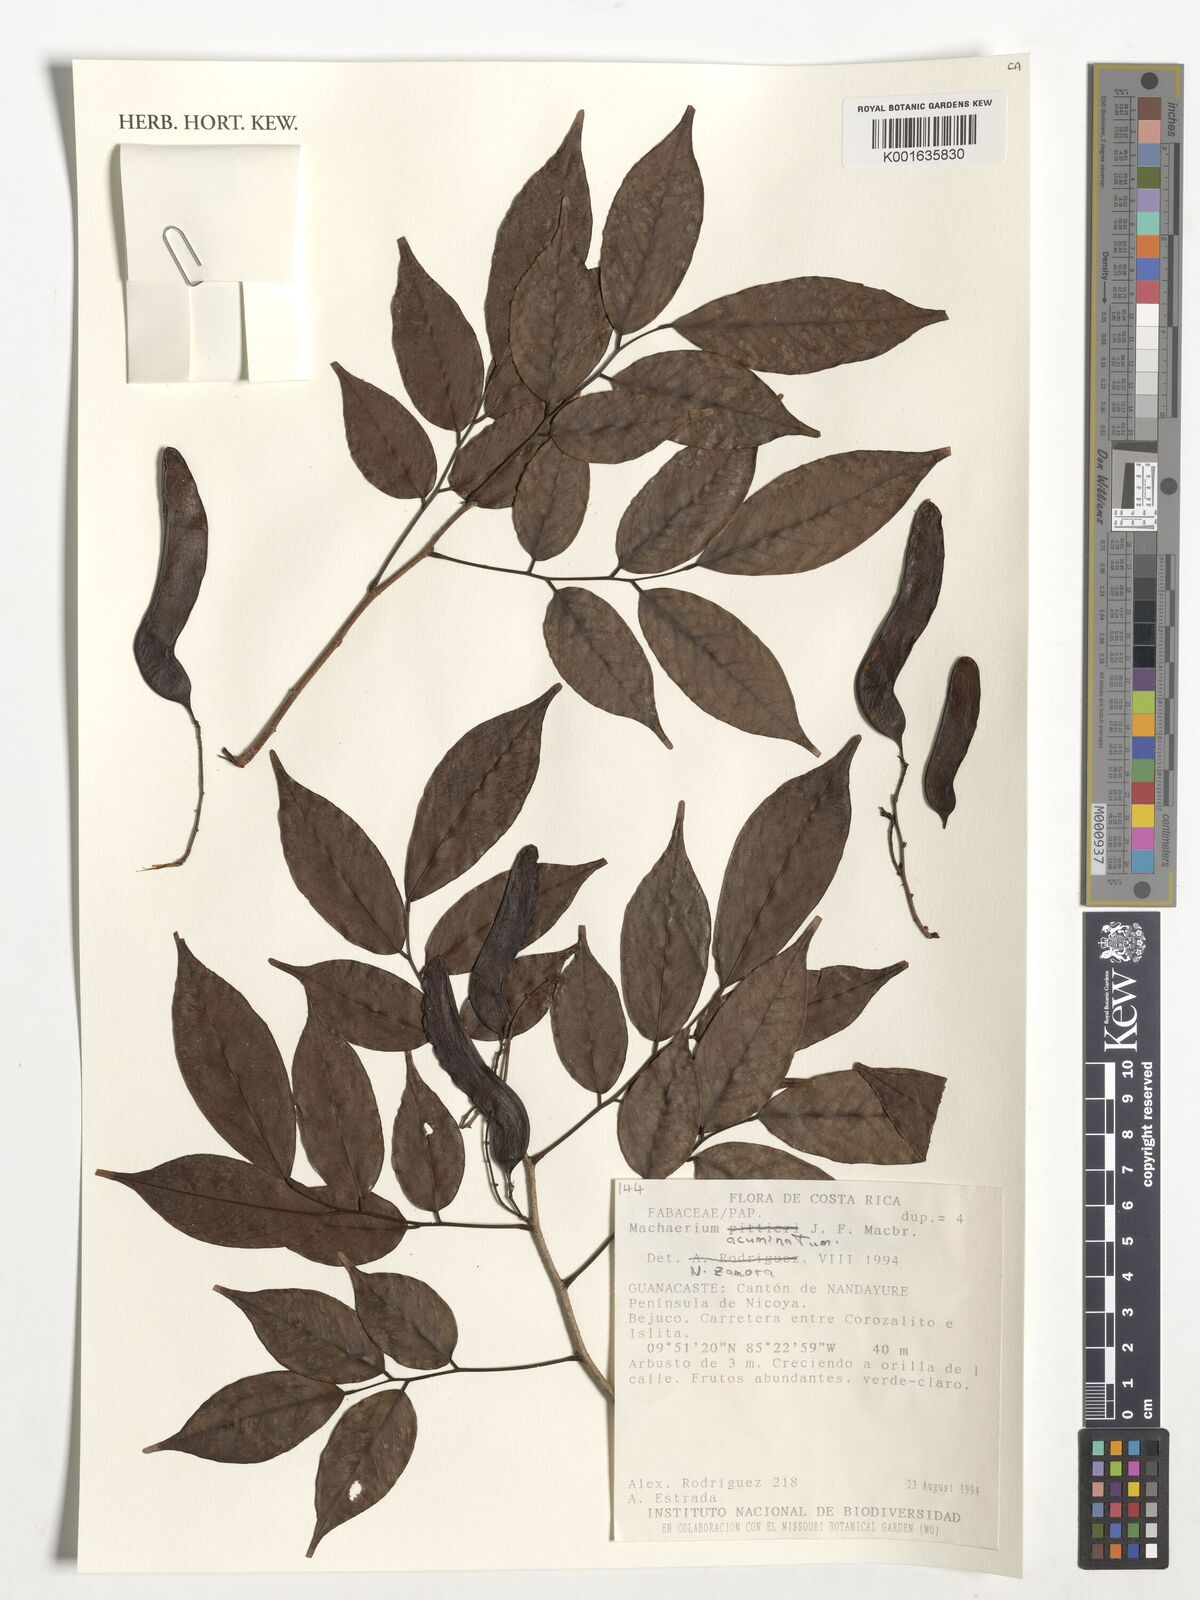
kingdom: Plantae
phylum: Tracheophyta
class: Magnoliopsida
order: Fabales
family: Fabaceae
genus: Machaerium
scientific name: Machaerium arboreum
